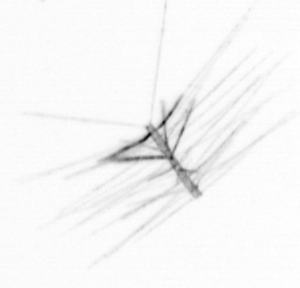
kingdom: Chromista
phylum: Ochrophyta
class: Bacillariophyceae
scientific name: Bacillariophyceae
